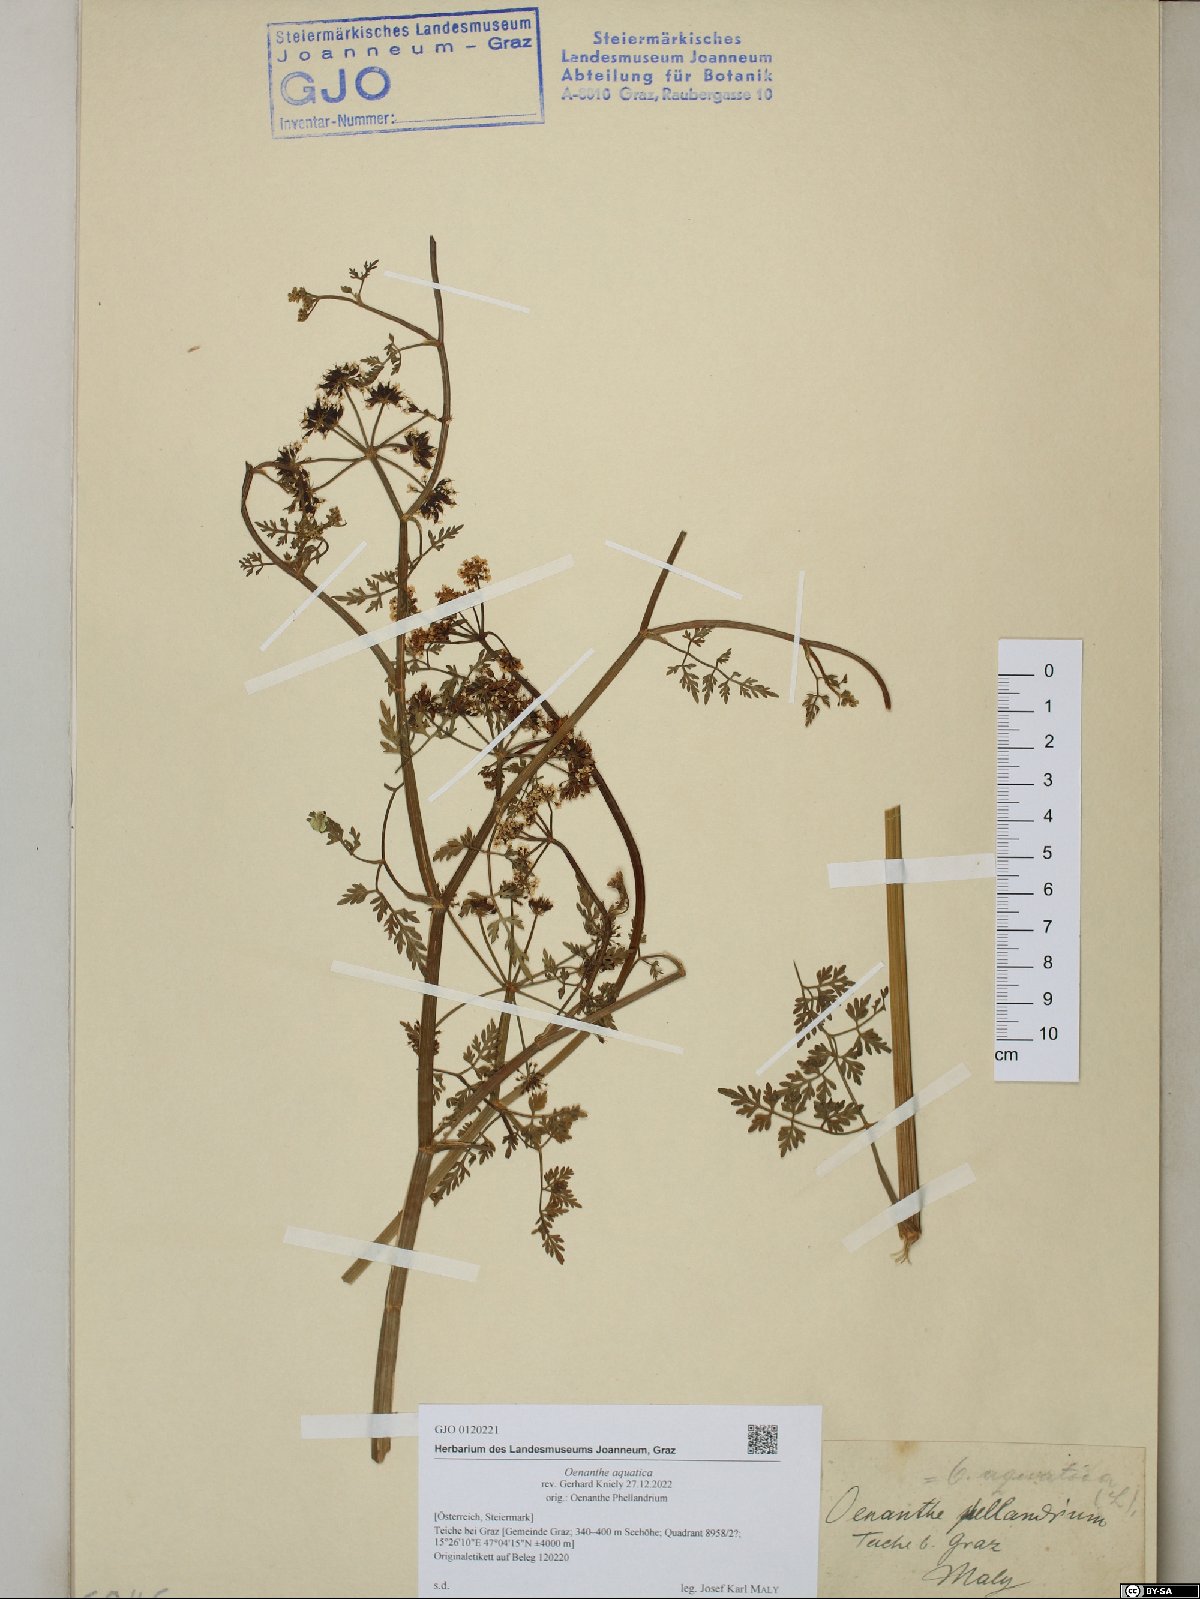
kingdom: Plantae
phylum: Tracheophyta
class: Magnoliopsida
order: Apiales
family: Apiaceae
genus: Oenanthe
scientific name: Oenanthe aquatica
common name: Fine-leaved water-dropwort
